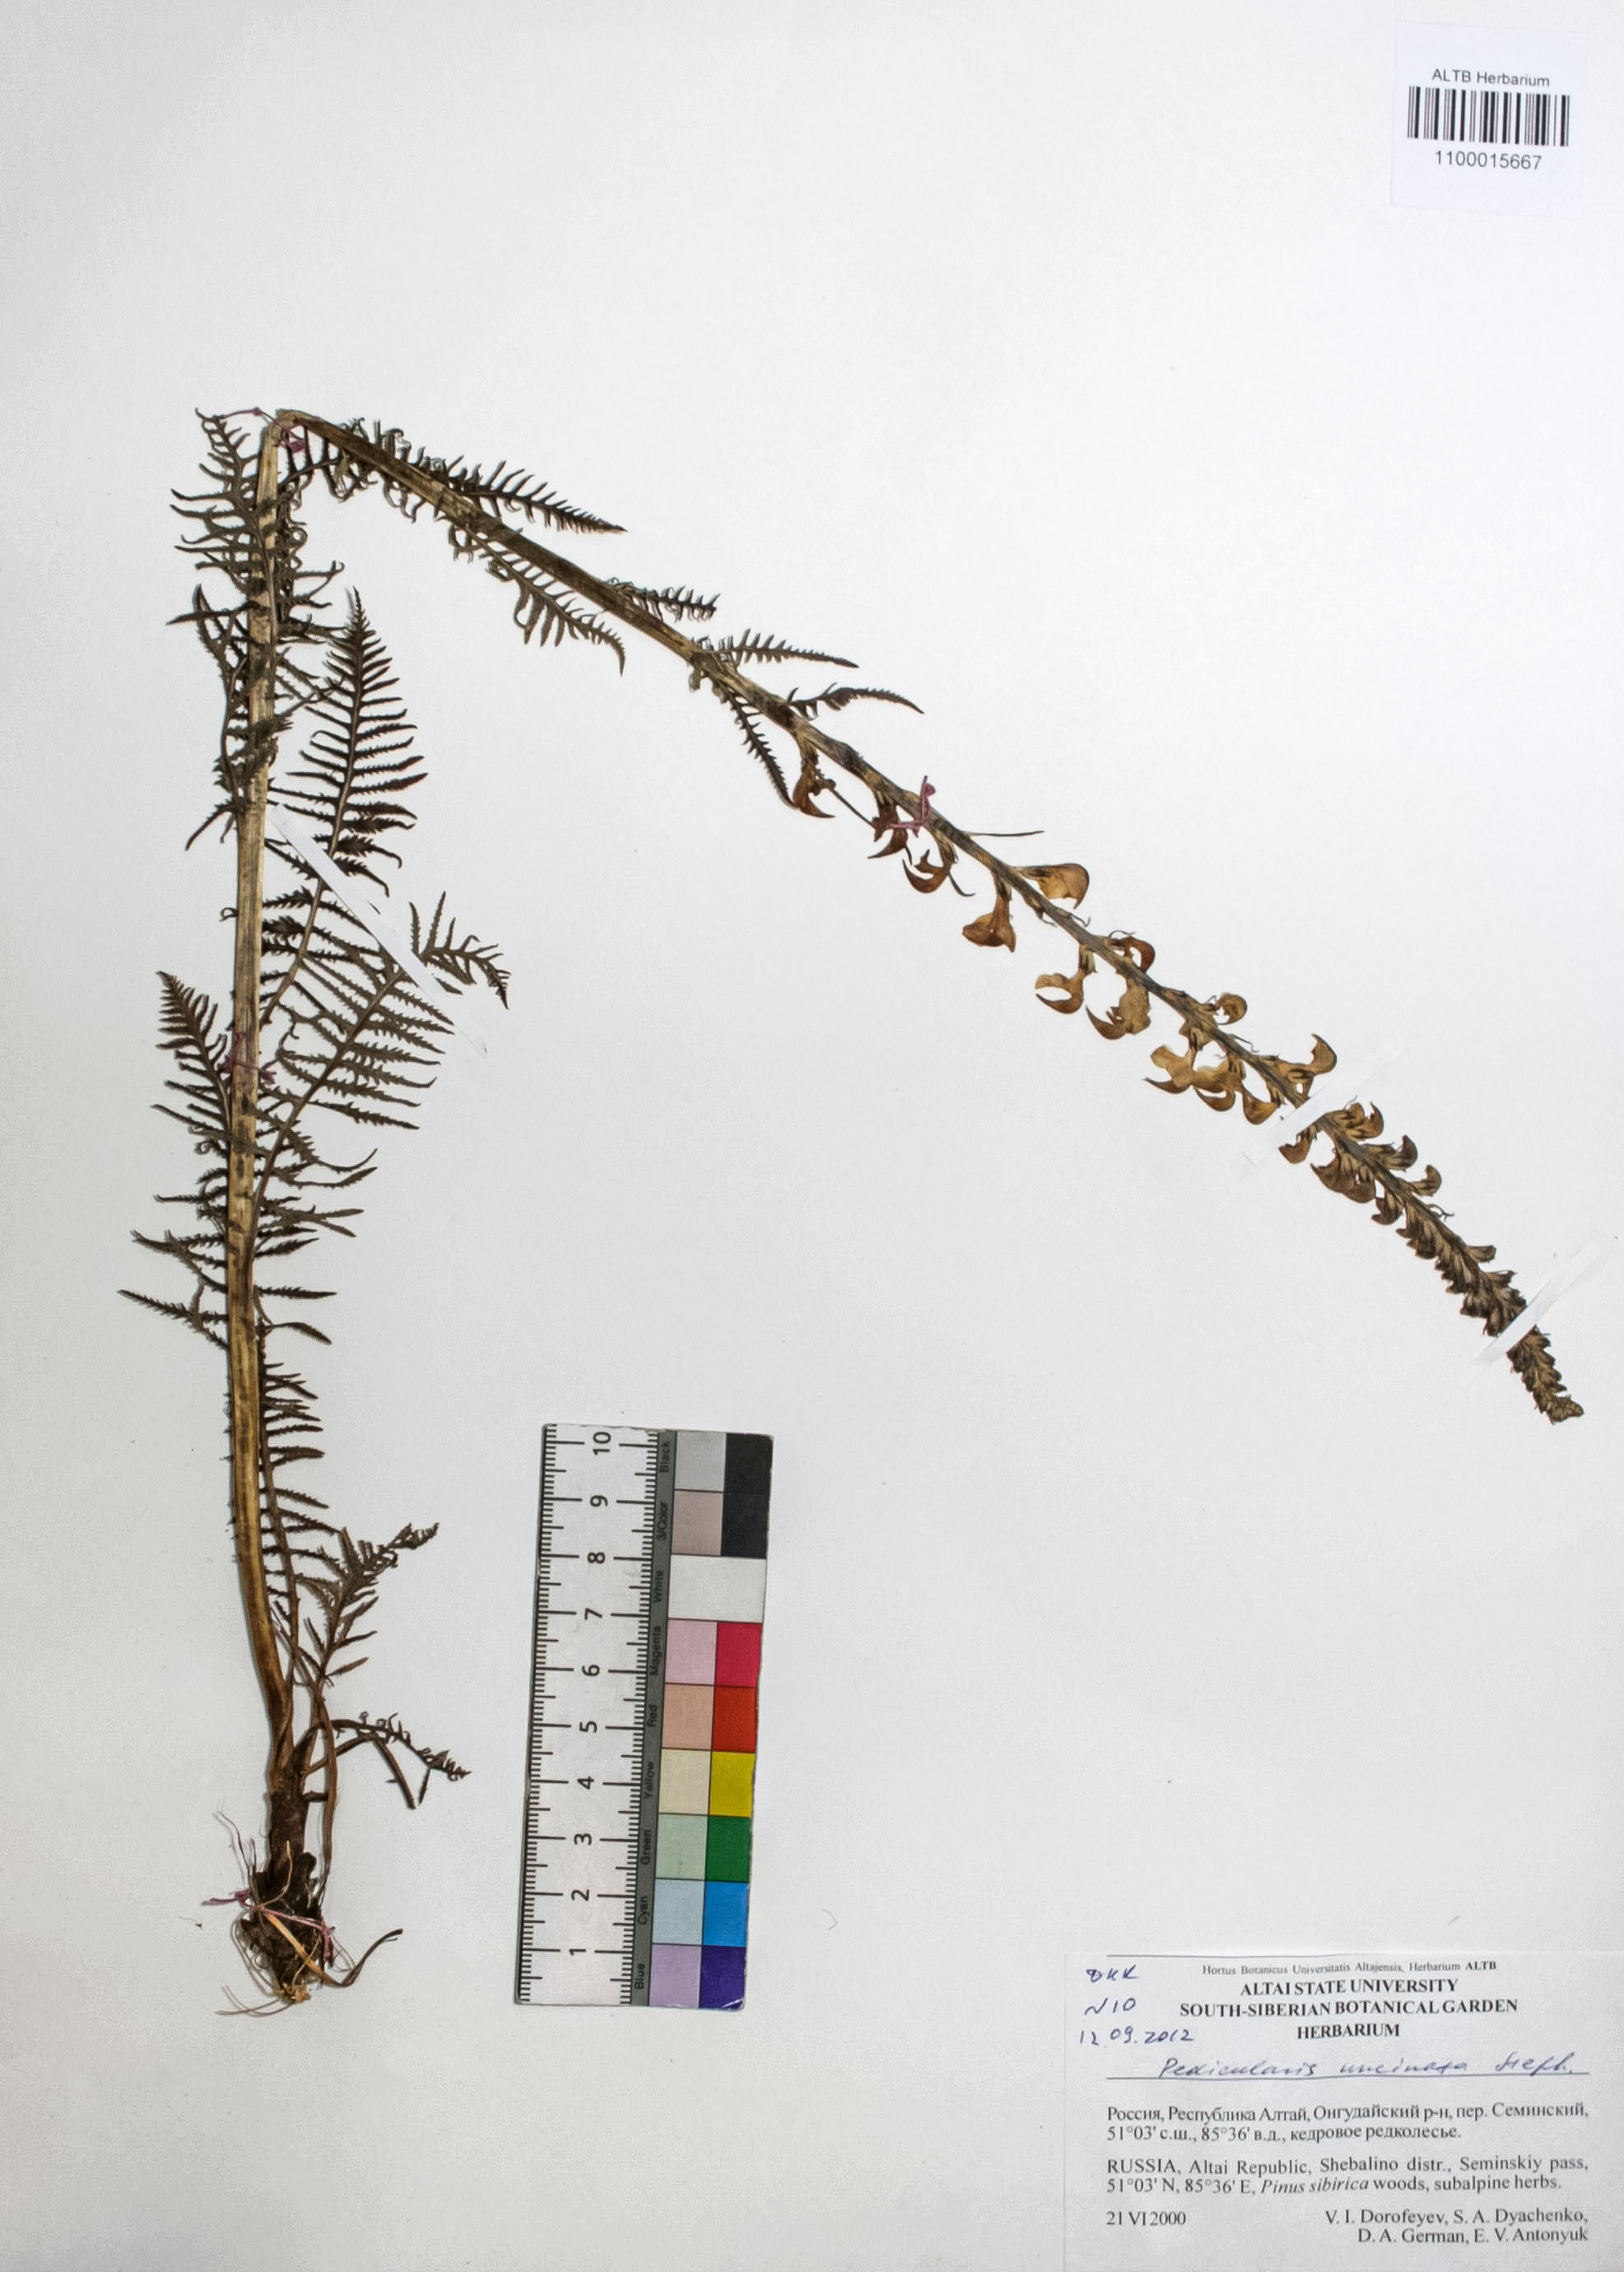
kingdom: Plantae
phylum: Tracheophyta
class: Magnoliopsida
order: Lamiales
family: Orobanchaceae
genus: Pedicularis
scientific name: Pedicularis incarnata
